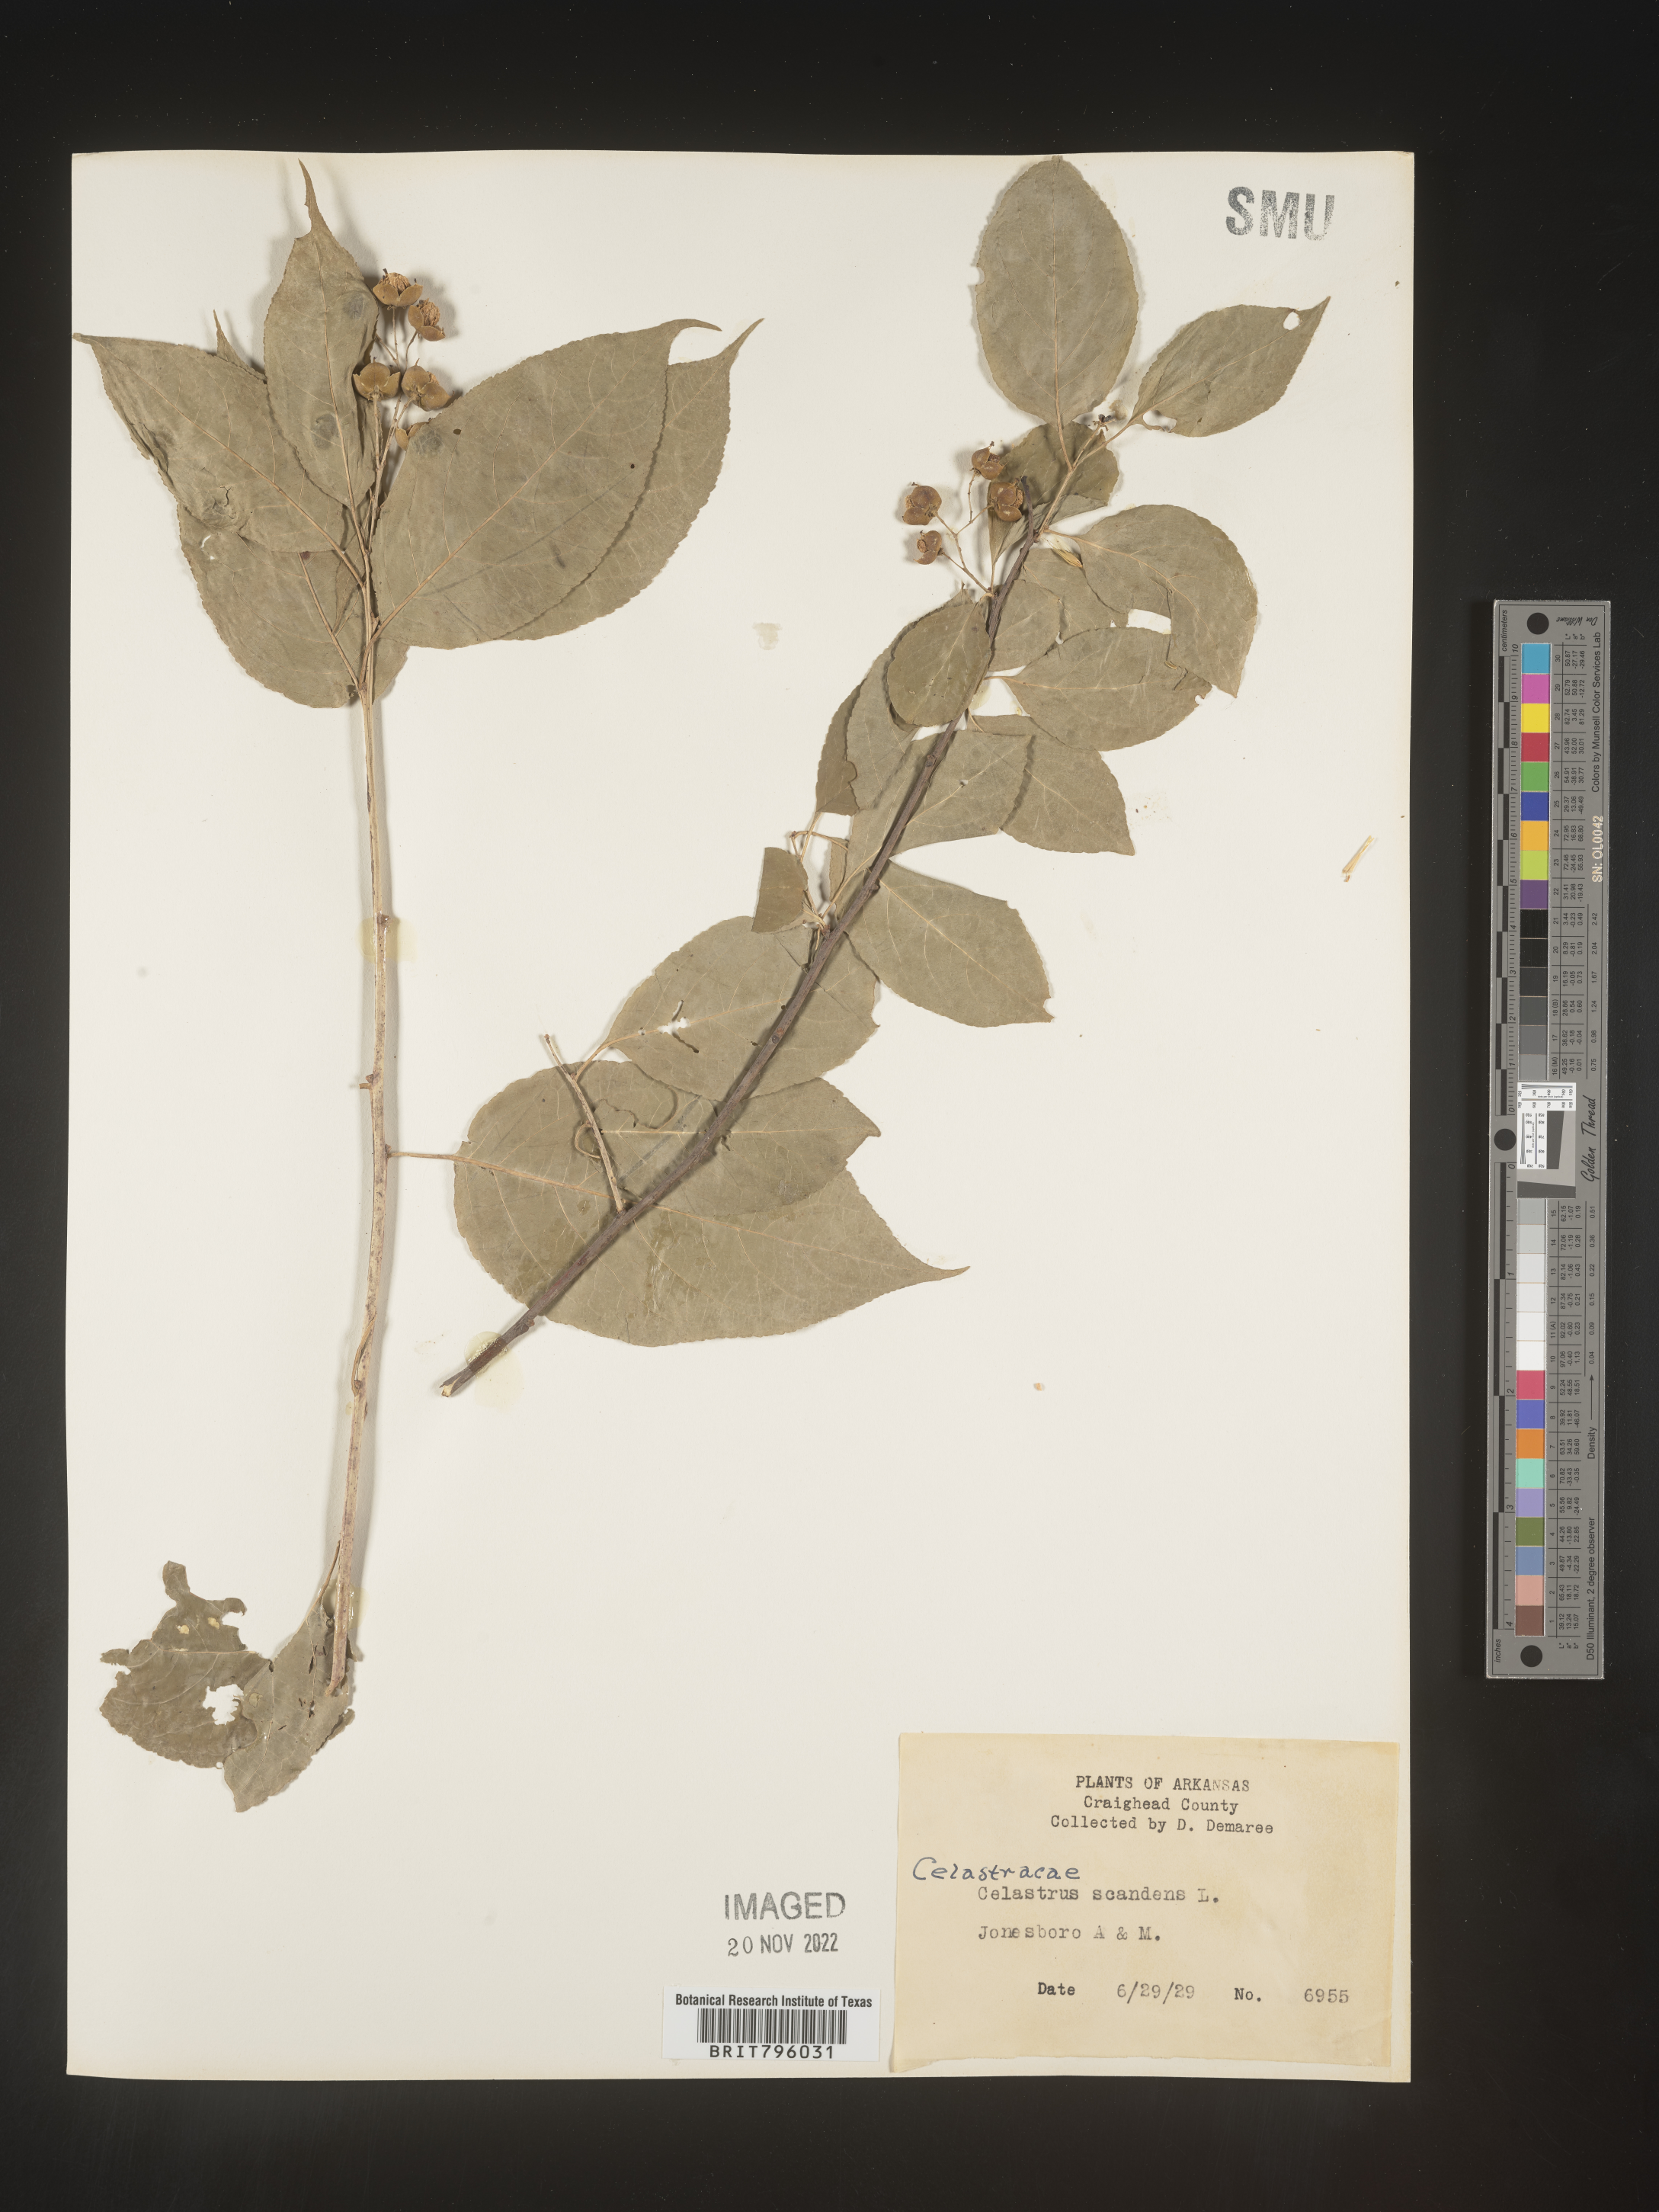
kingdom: Plantae
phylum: Tracheophyta
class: Magnoliopsida
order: Celastrales
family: Celastraceae
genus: Celastrus
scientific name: Celastrus scandens
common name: American bittersweet
